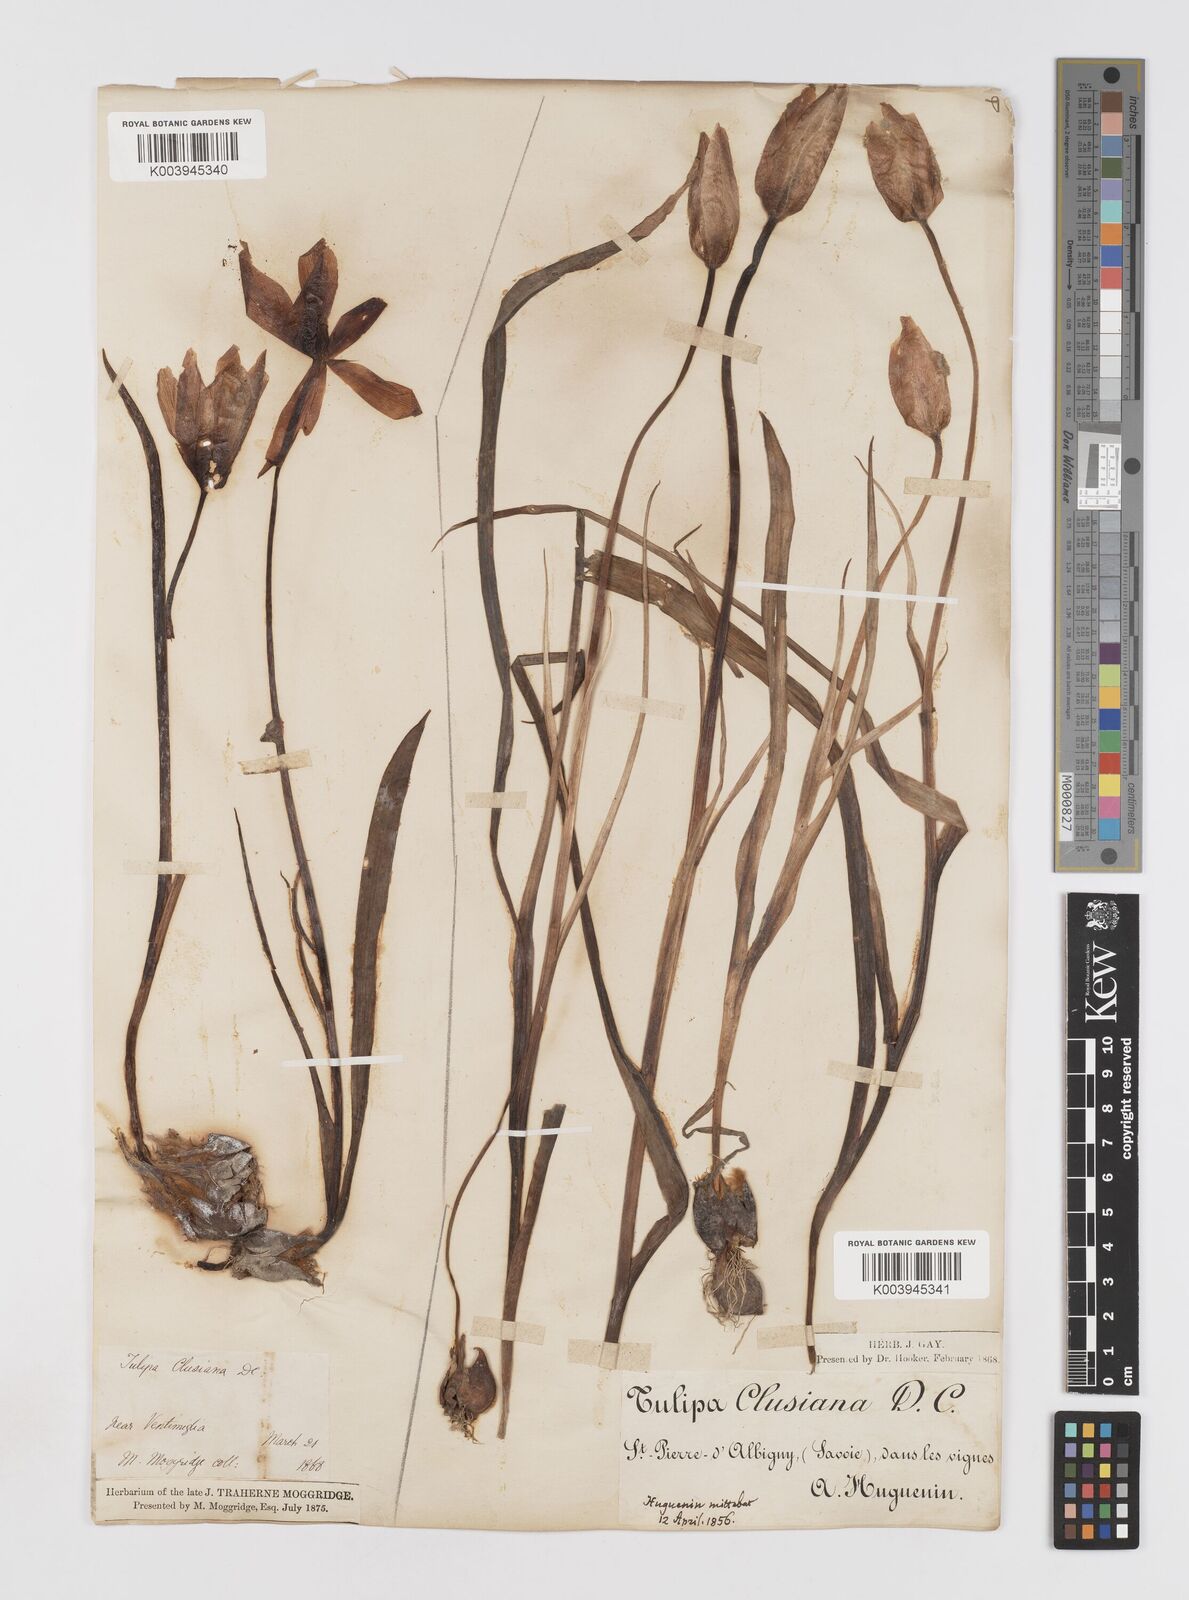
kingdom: Plantae
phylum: Tracheophyta
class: Liliopsida
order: Liliales
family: Liliaceae
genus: Tulipa
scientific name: Tulipa clusiana
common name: Lady tulip
